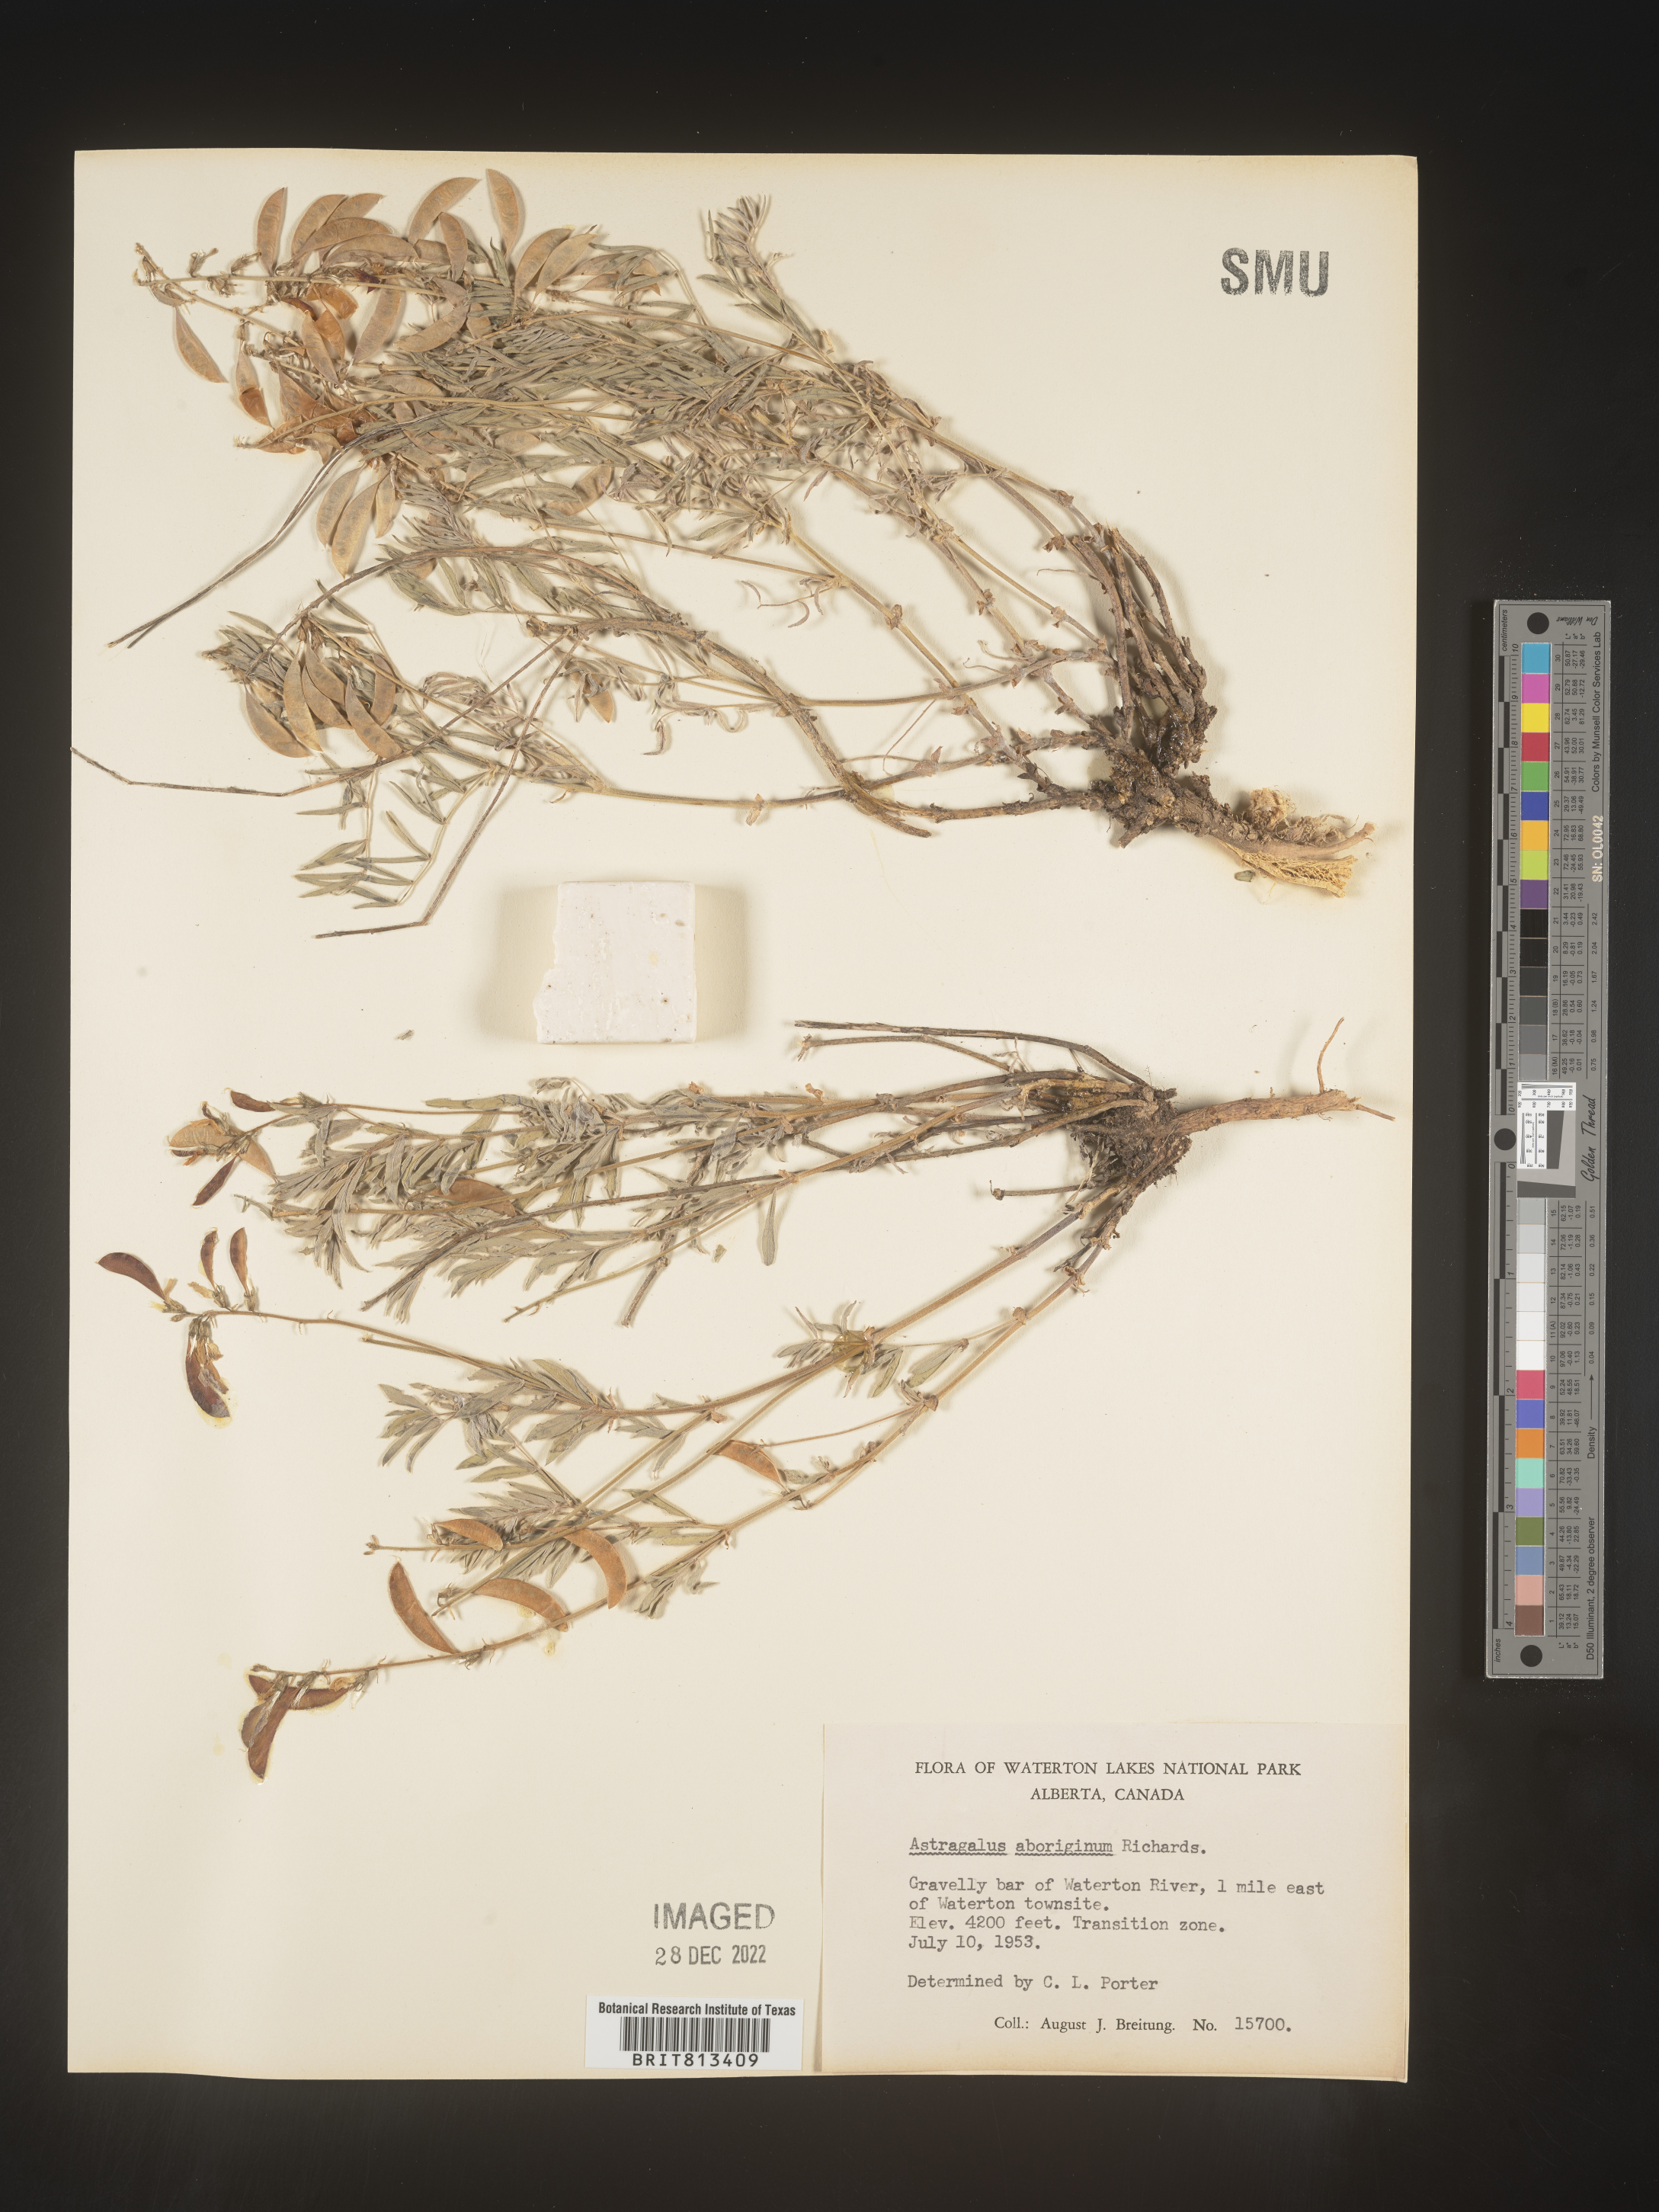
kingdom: Plantae
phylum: Tracheophyta
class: Magnoliopsida
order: Fabales
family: Fabaceae
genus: Astragalus
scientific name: Astragalus
